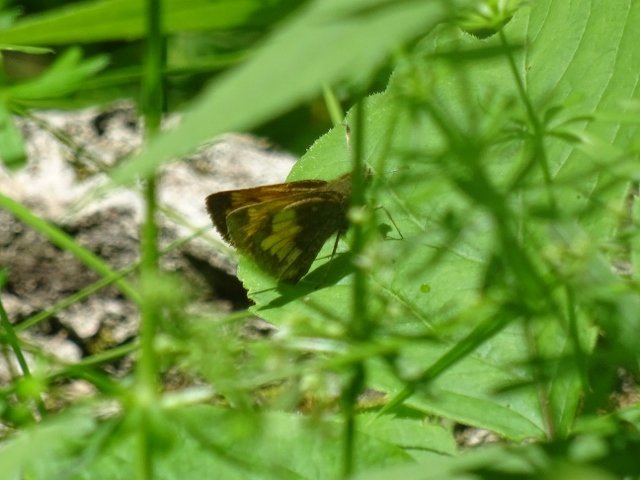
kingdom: Animalia
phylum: Arthropoda
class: Insecta
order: Lepidoptera
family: Hesperiidae
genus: Lon
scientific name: Lon hobomok
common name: Hobomok Skipper
